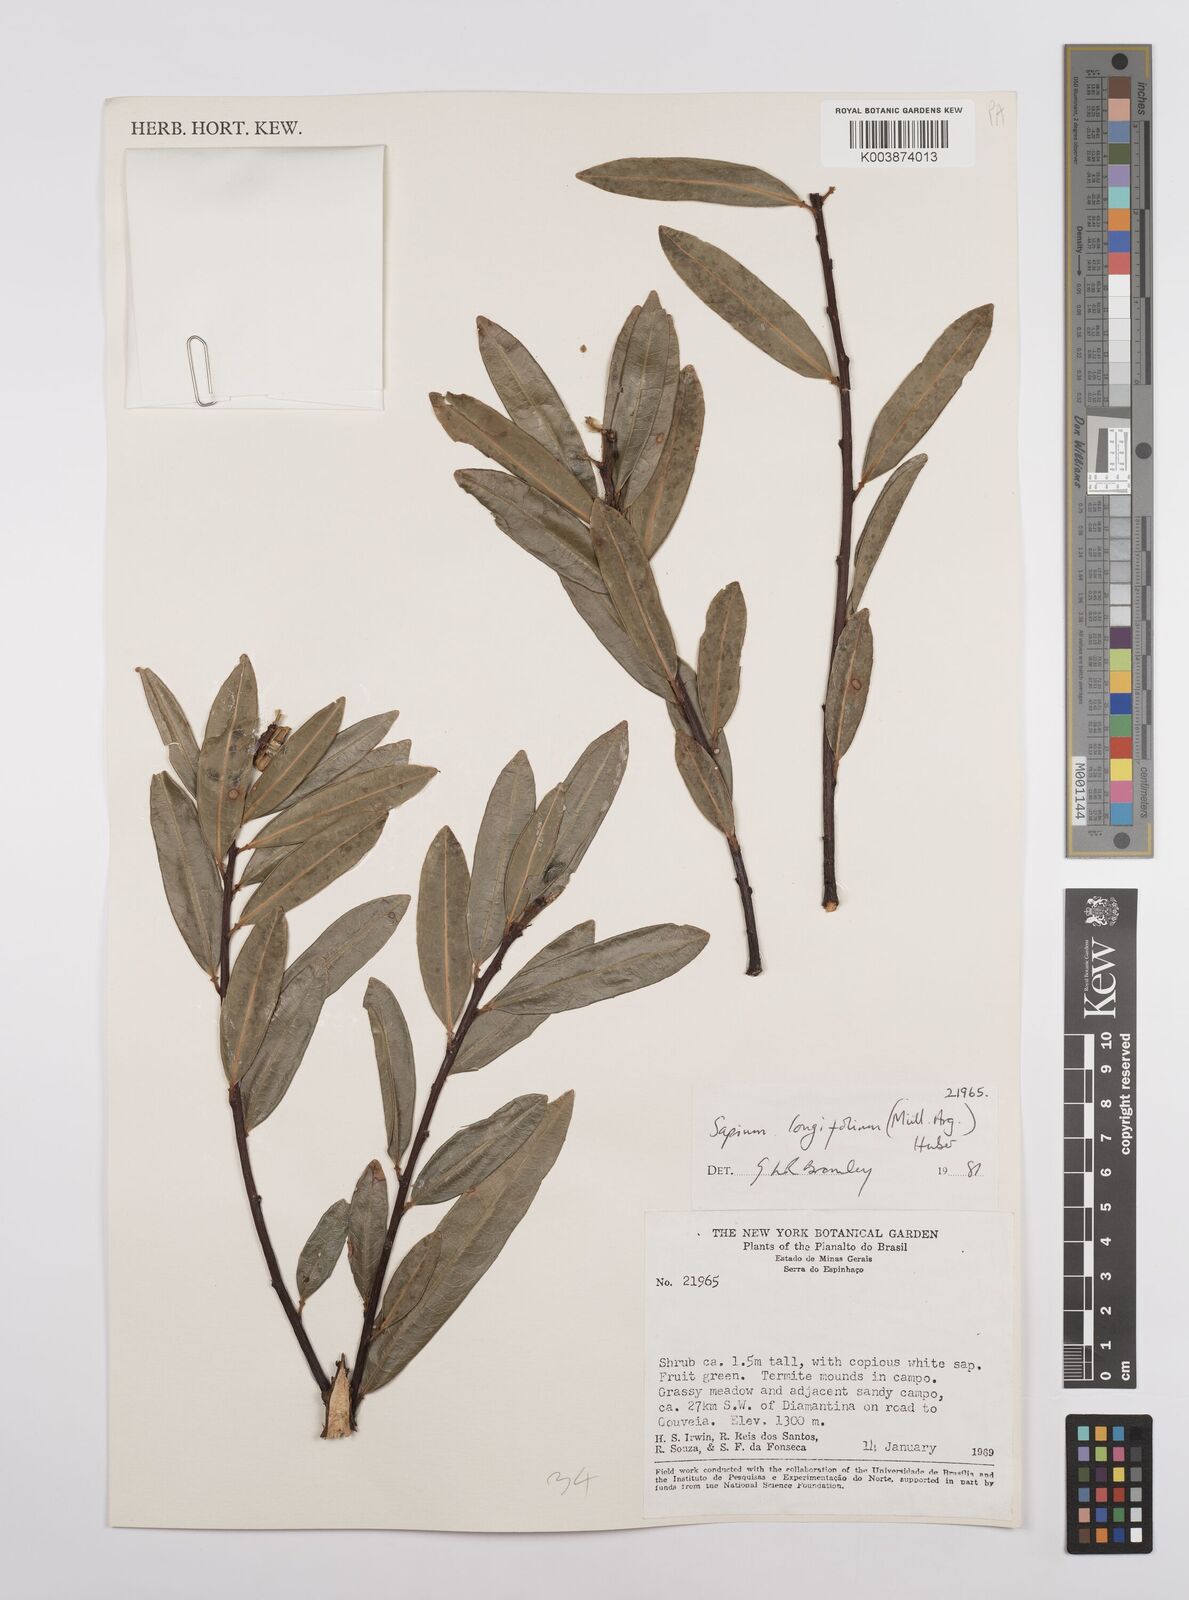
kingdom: Plantae
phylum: Tracheophyta
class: Magnoliopsida
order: Malpighiales
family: Euphorbiaceae
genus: Sapium
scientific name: Sapium haematospermum
